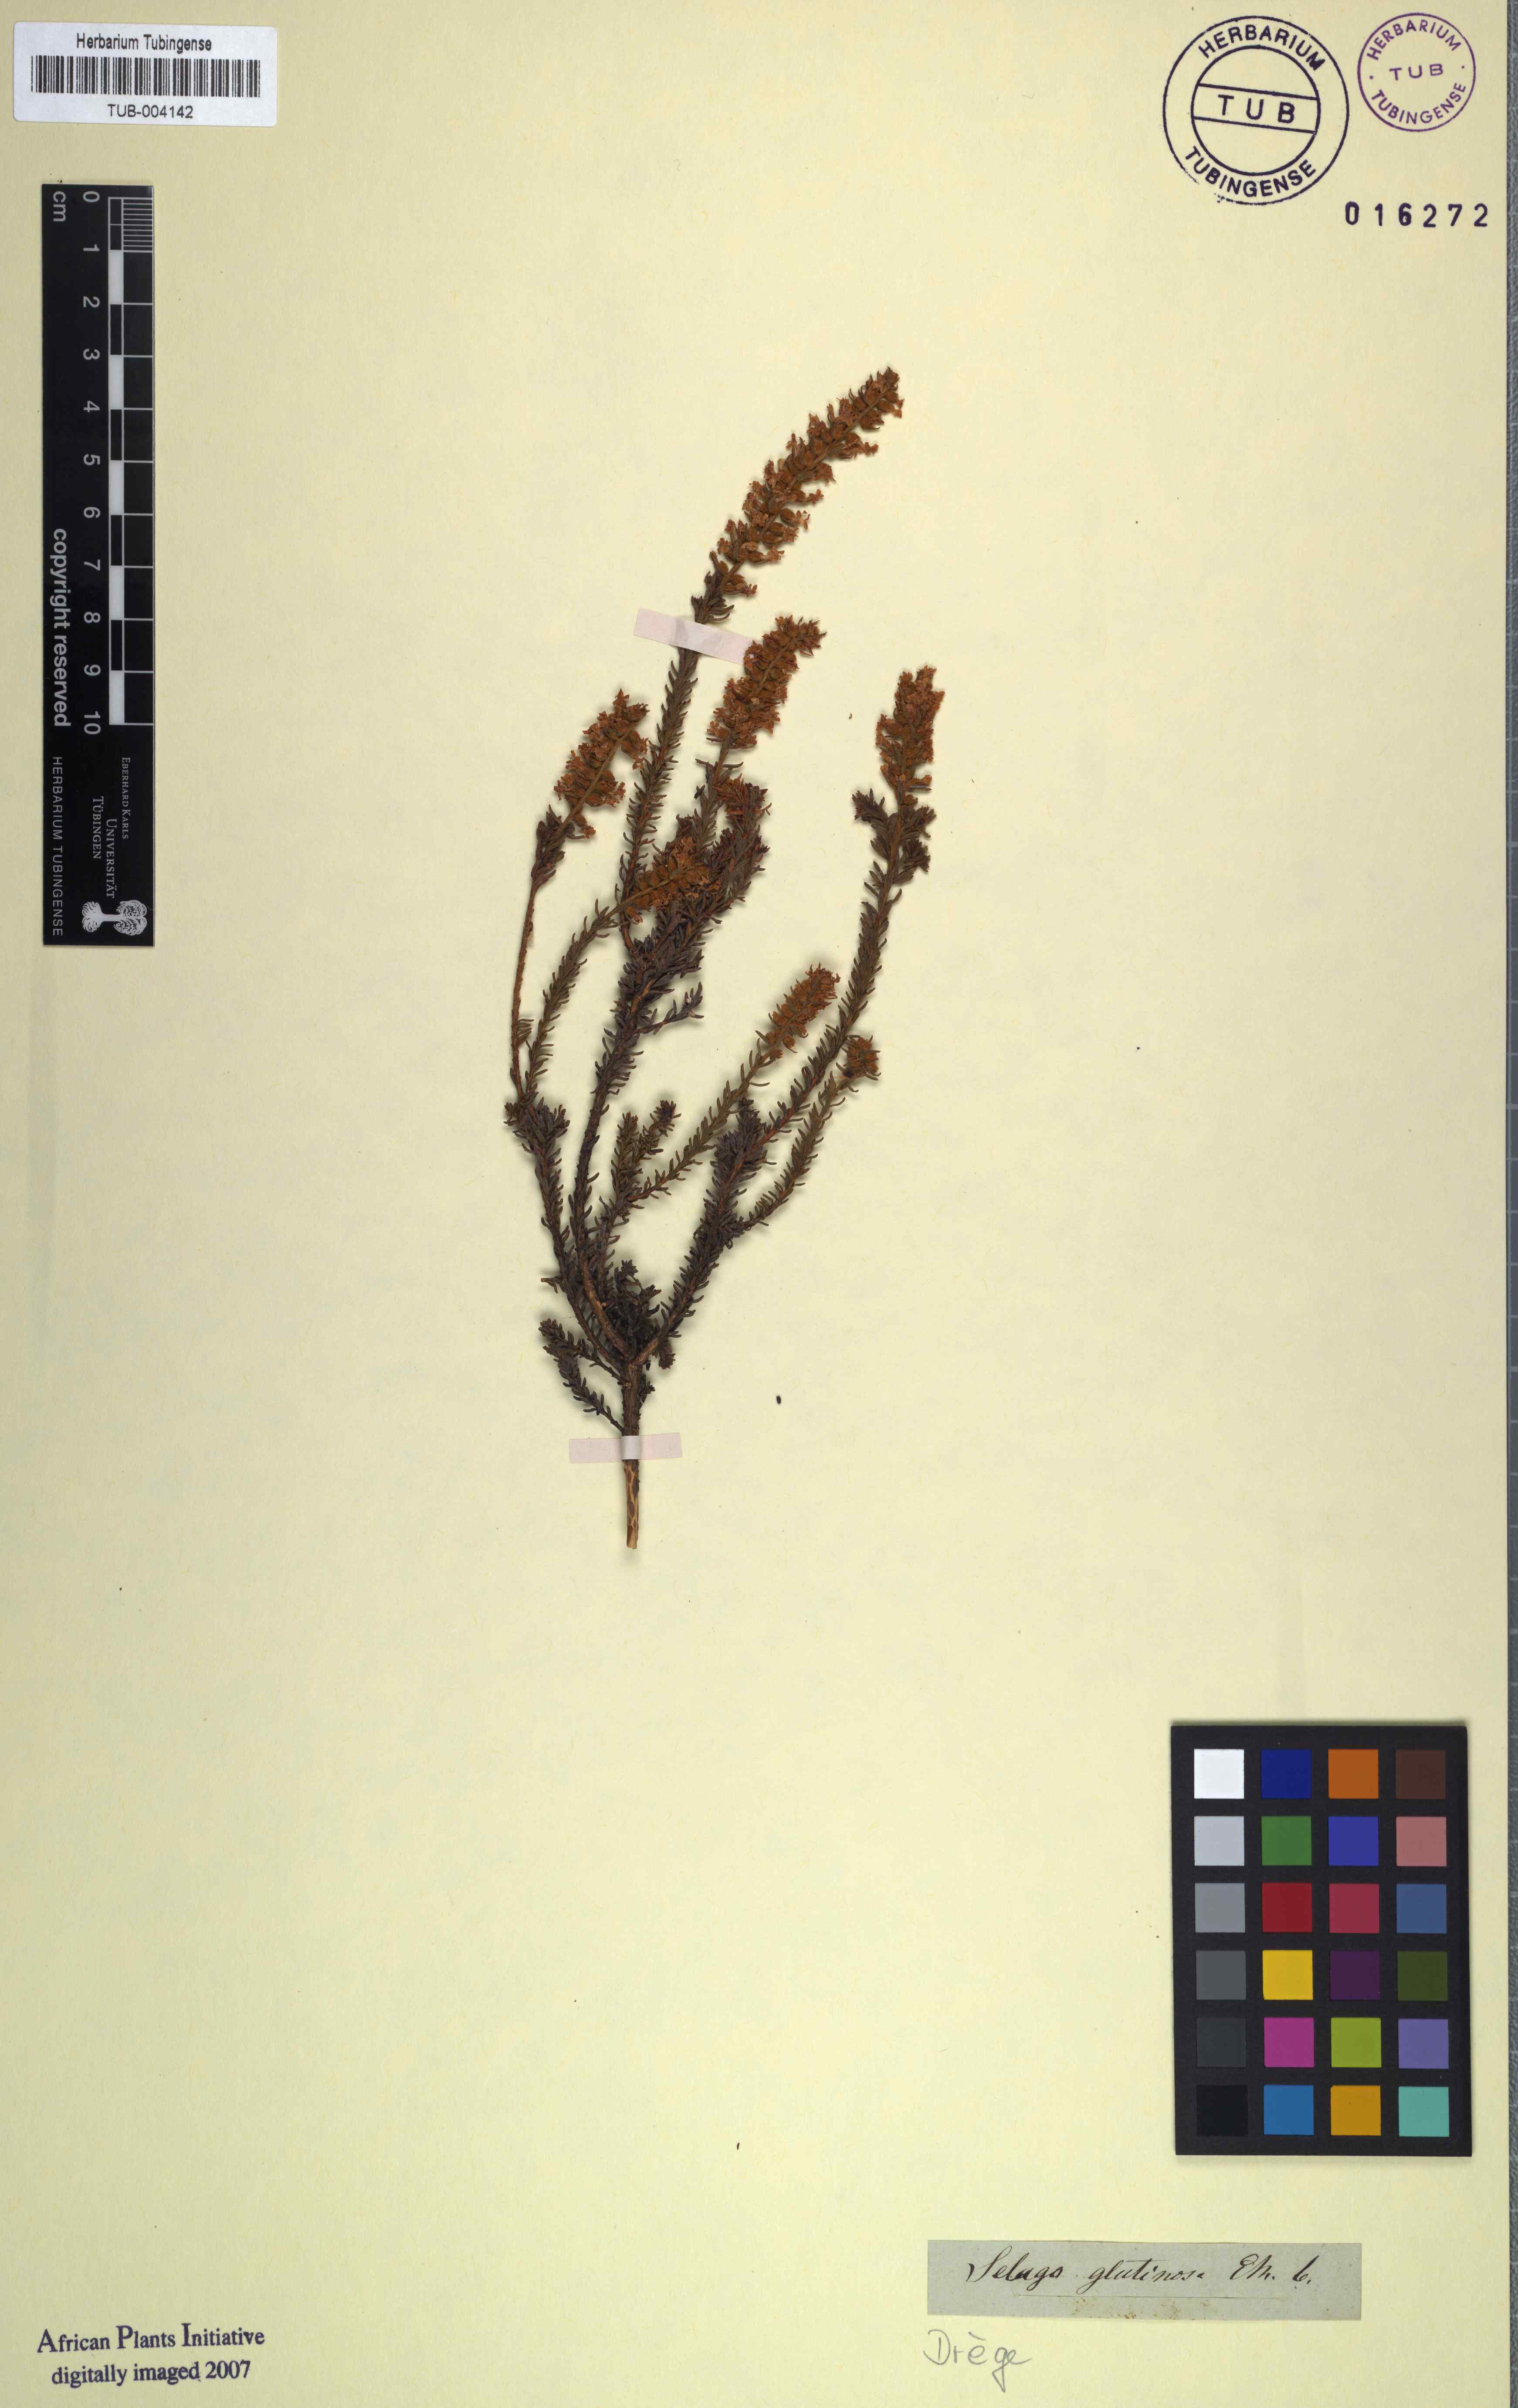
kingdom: Plantae
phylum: Tracheophyta
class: Magnoliopsida
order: Asterales
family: Asteraceae
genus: Helichrysum
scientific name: Helichrysum auronitens
